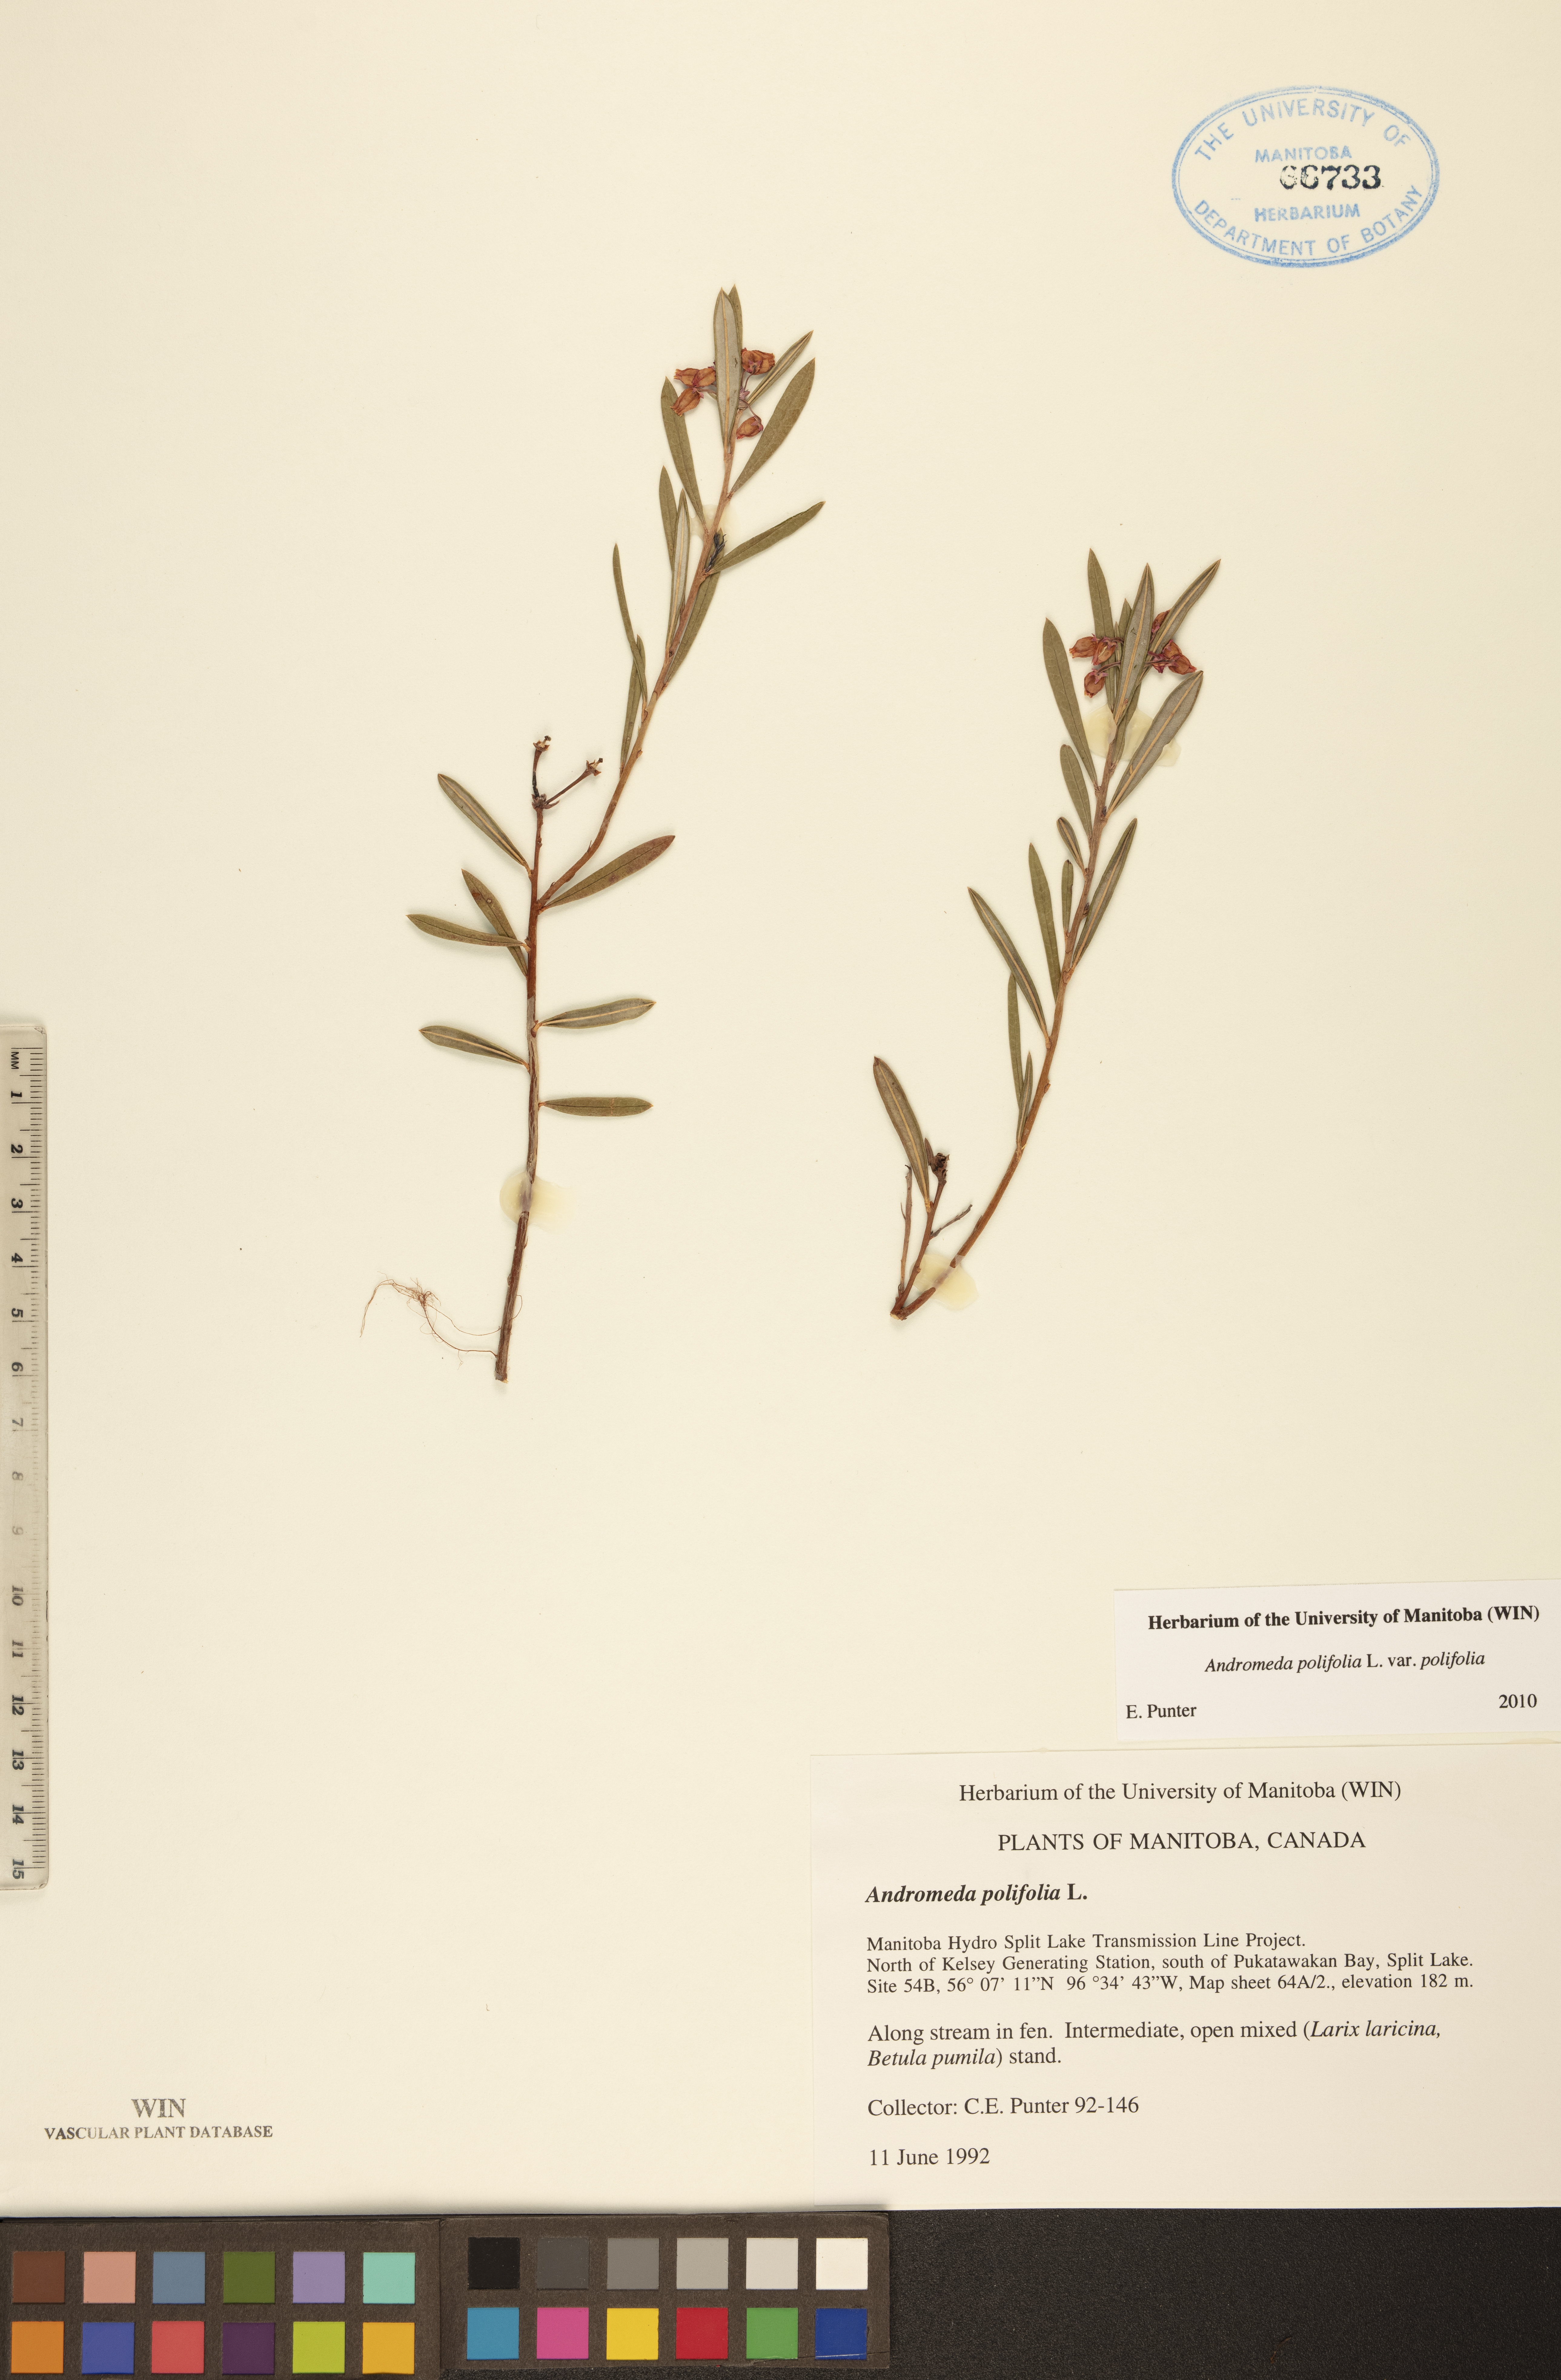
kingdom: Plantae
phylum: Tracheophyta
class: Magnoliopsida
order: Ericales
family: Ericaceae
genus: Andromeda
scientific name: Andromeda polifolia
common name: Bog-rosemary
